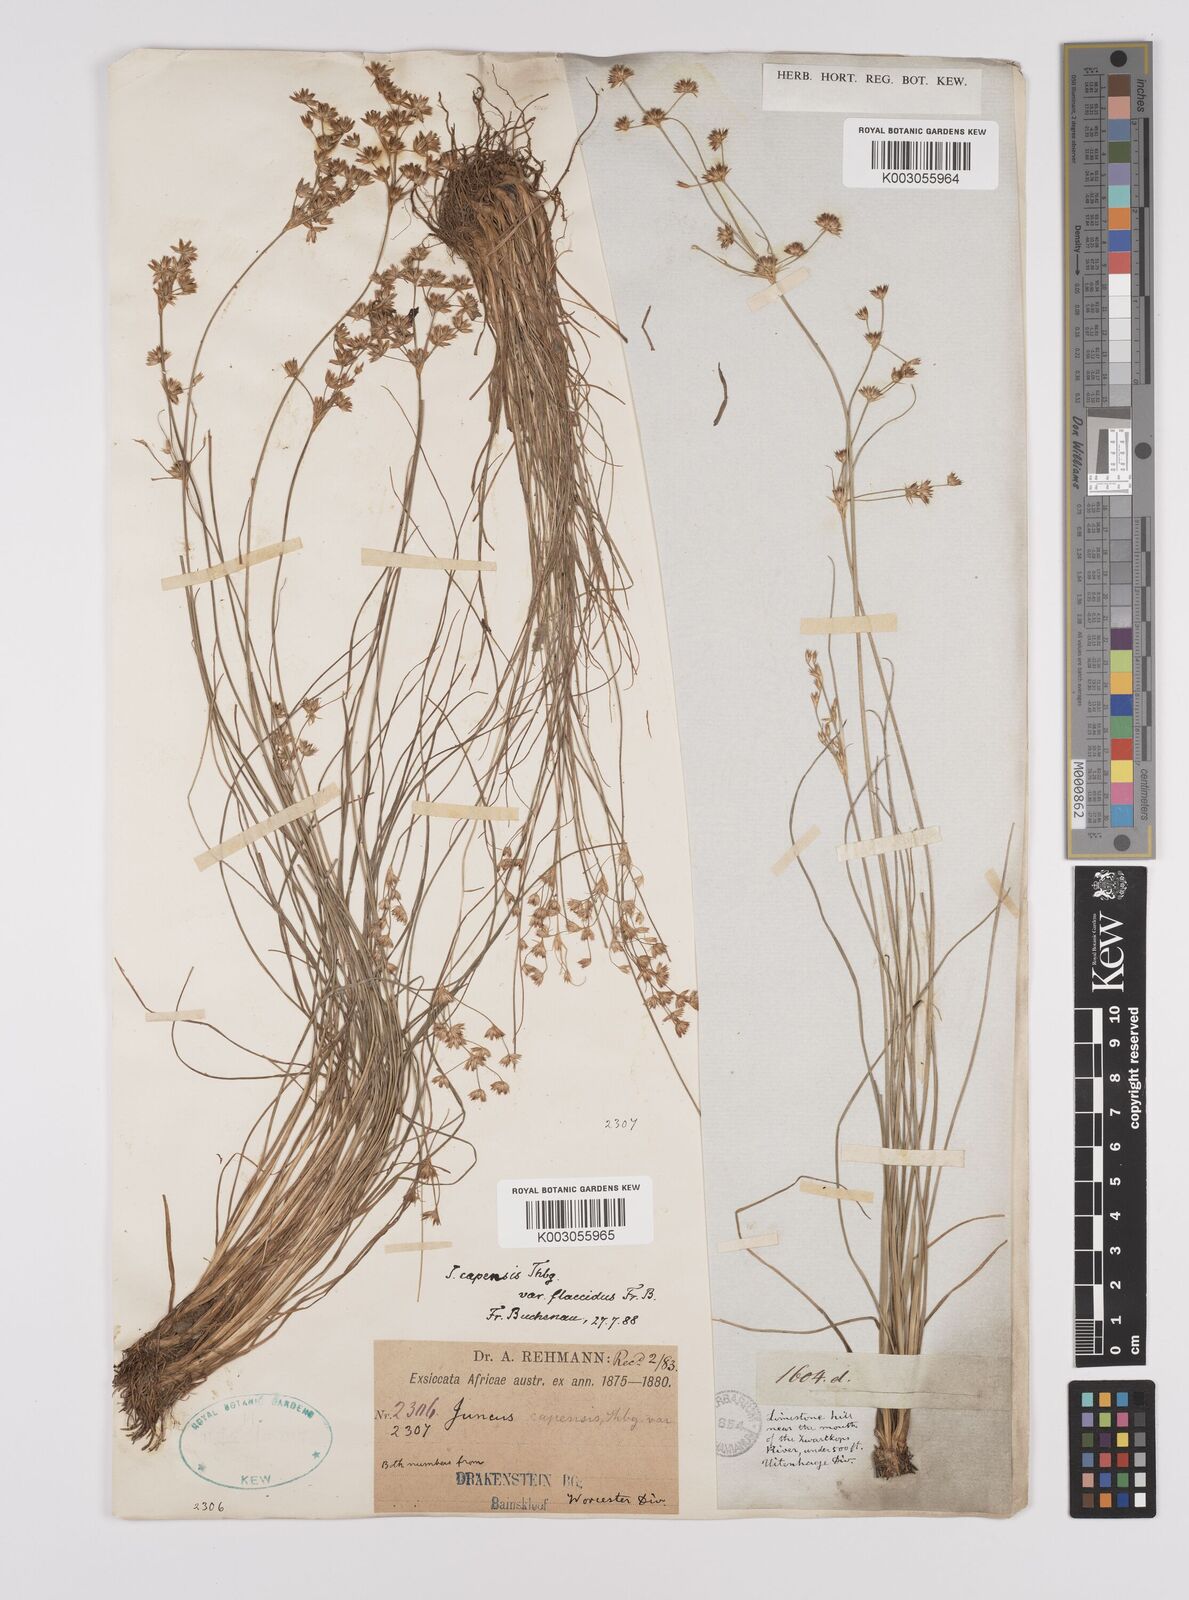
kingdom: Plantae
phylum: Tracheophyta
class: Liliopsida
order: Poales
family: Juncaceae
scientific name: Juncaceae
